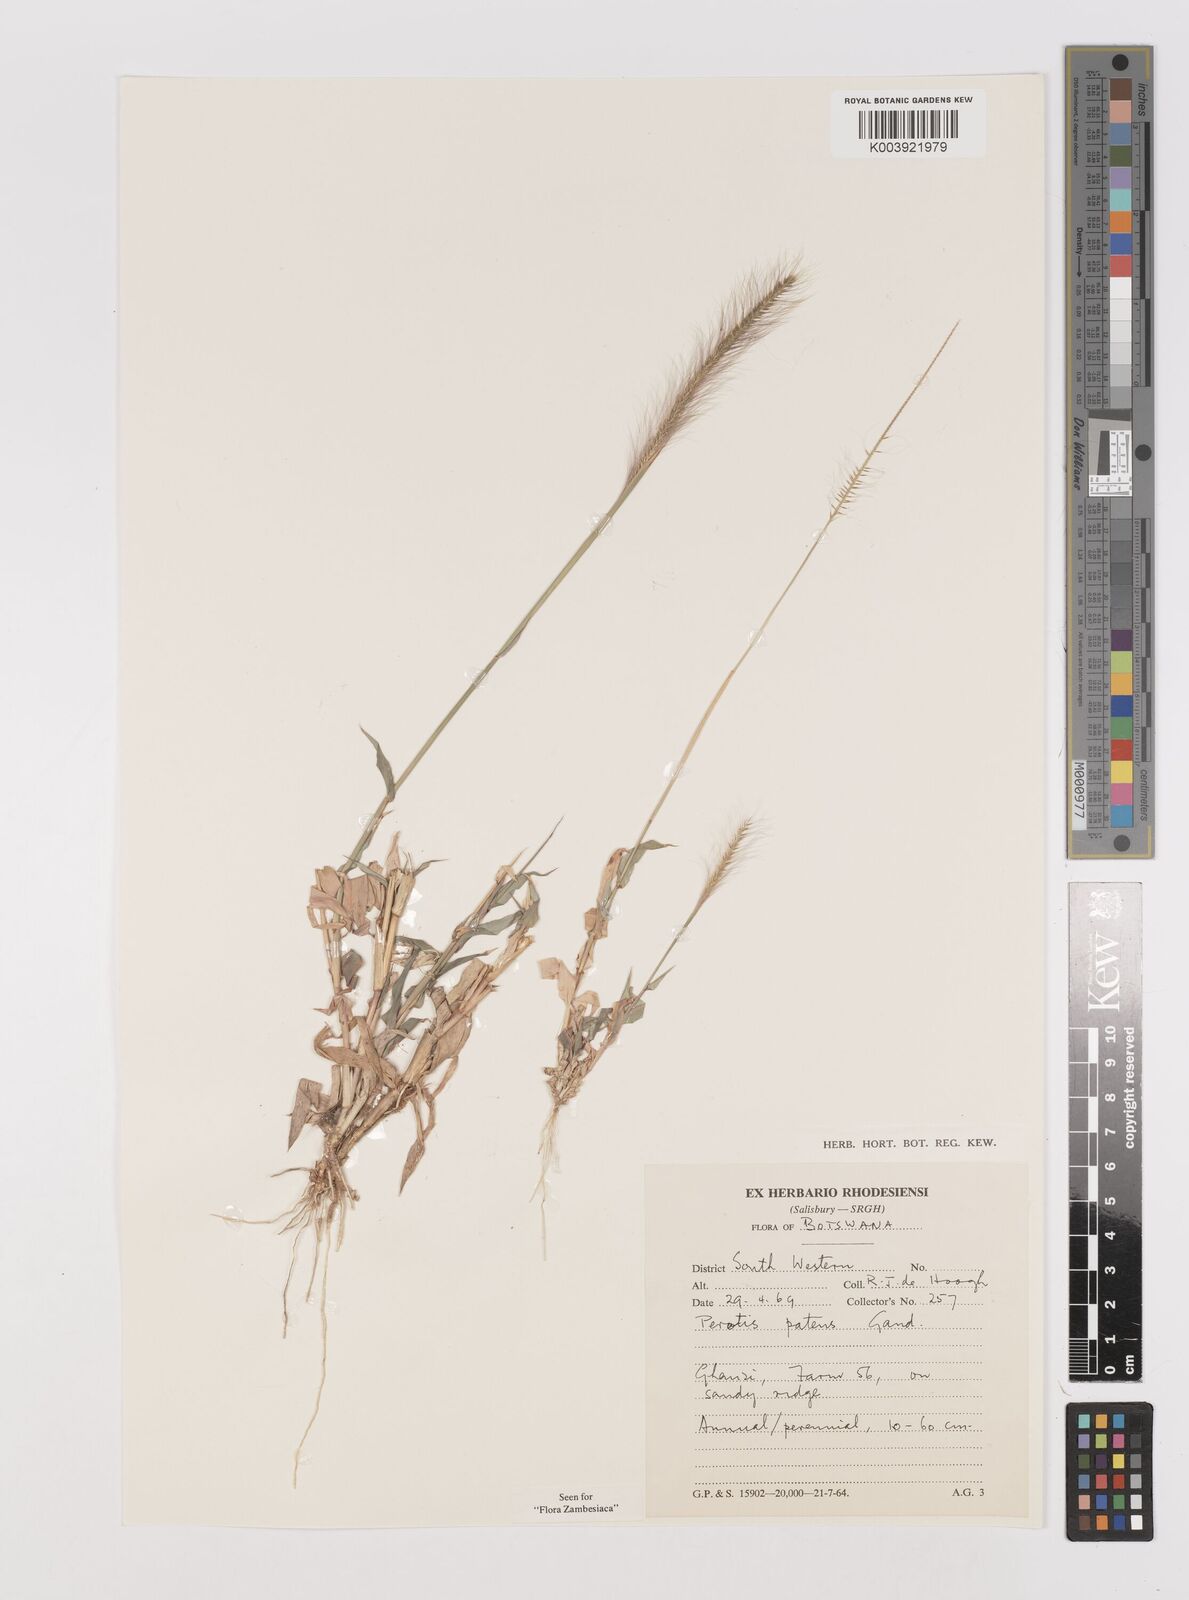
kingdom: Plantae
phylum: Tracheophyta
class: Liliopsida
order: Poales
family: Poaceae
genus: Perotis
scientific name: Perotis patens
